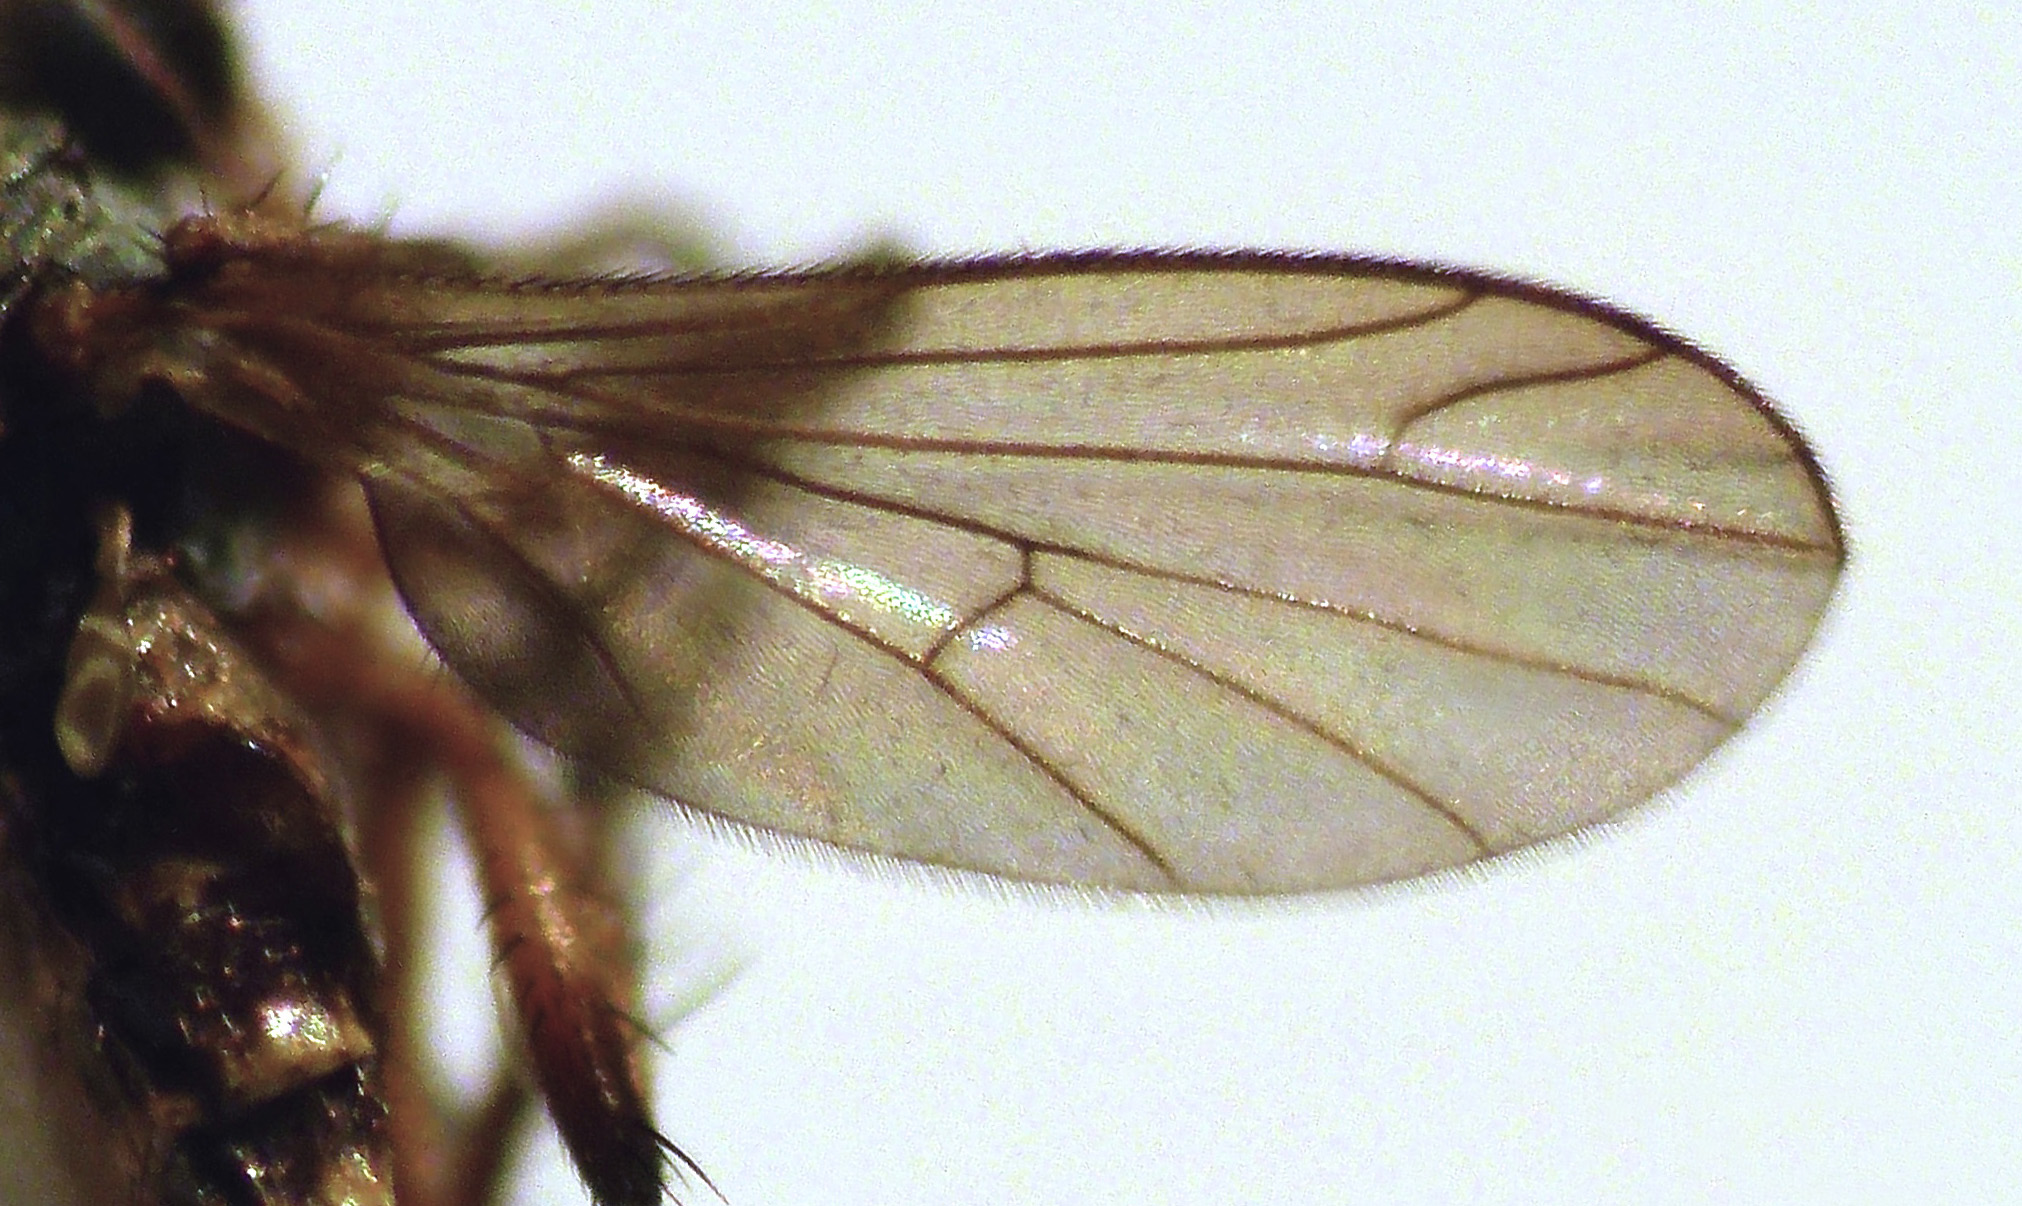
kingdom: Animalia
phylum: Arthropoda
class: Insecta
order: Diptera
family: Empididae
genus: Empidadelpha
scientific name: Empidadelpha propria
